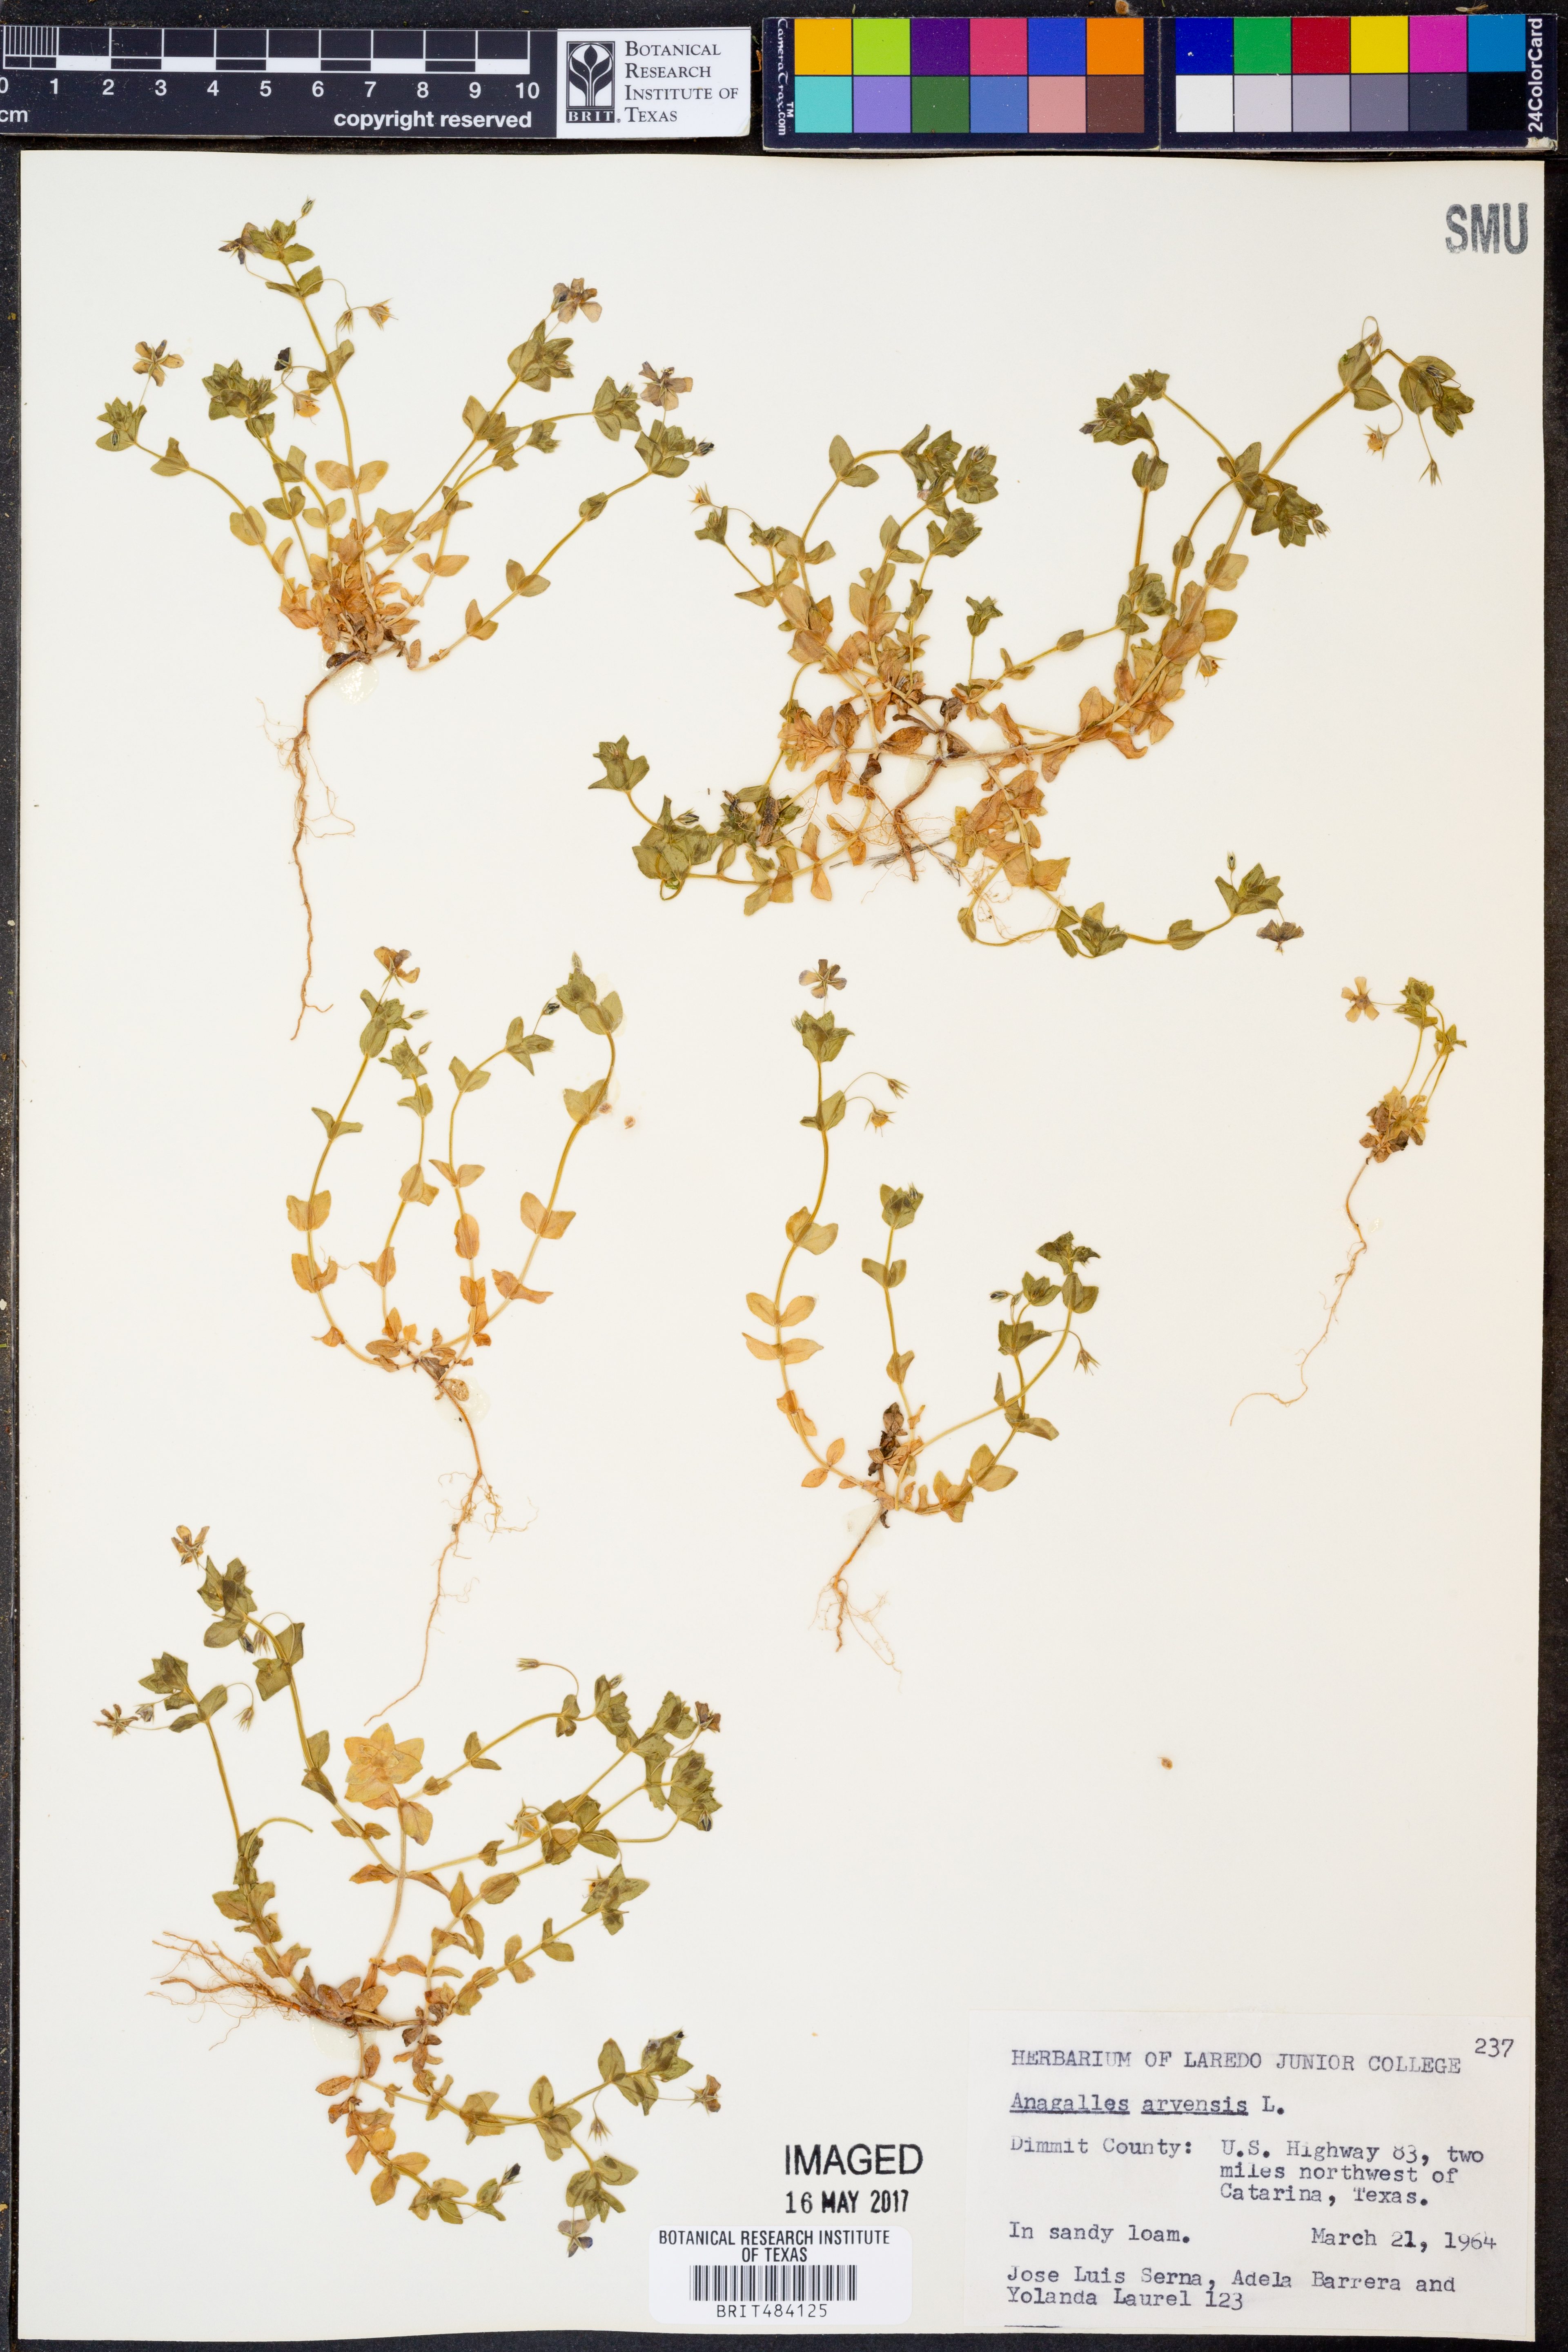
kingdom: Plantae
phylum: Tracheophyta
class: Magnoliopsida
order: Ericales
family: Primulaceae
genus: Lysimachia
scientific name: Lysimachia arvensis
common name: Scarlet pimpernel
